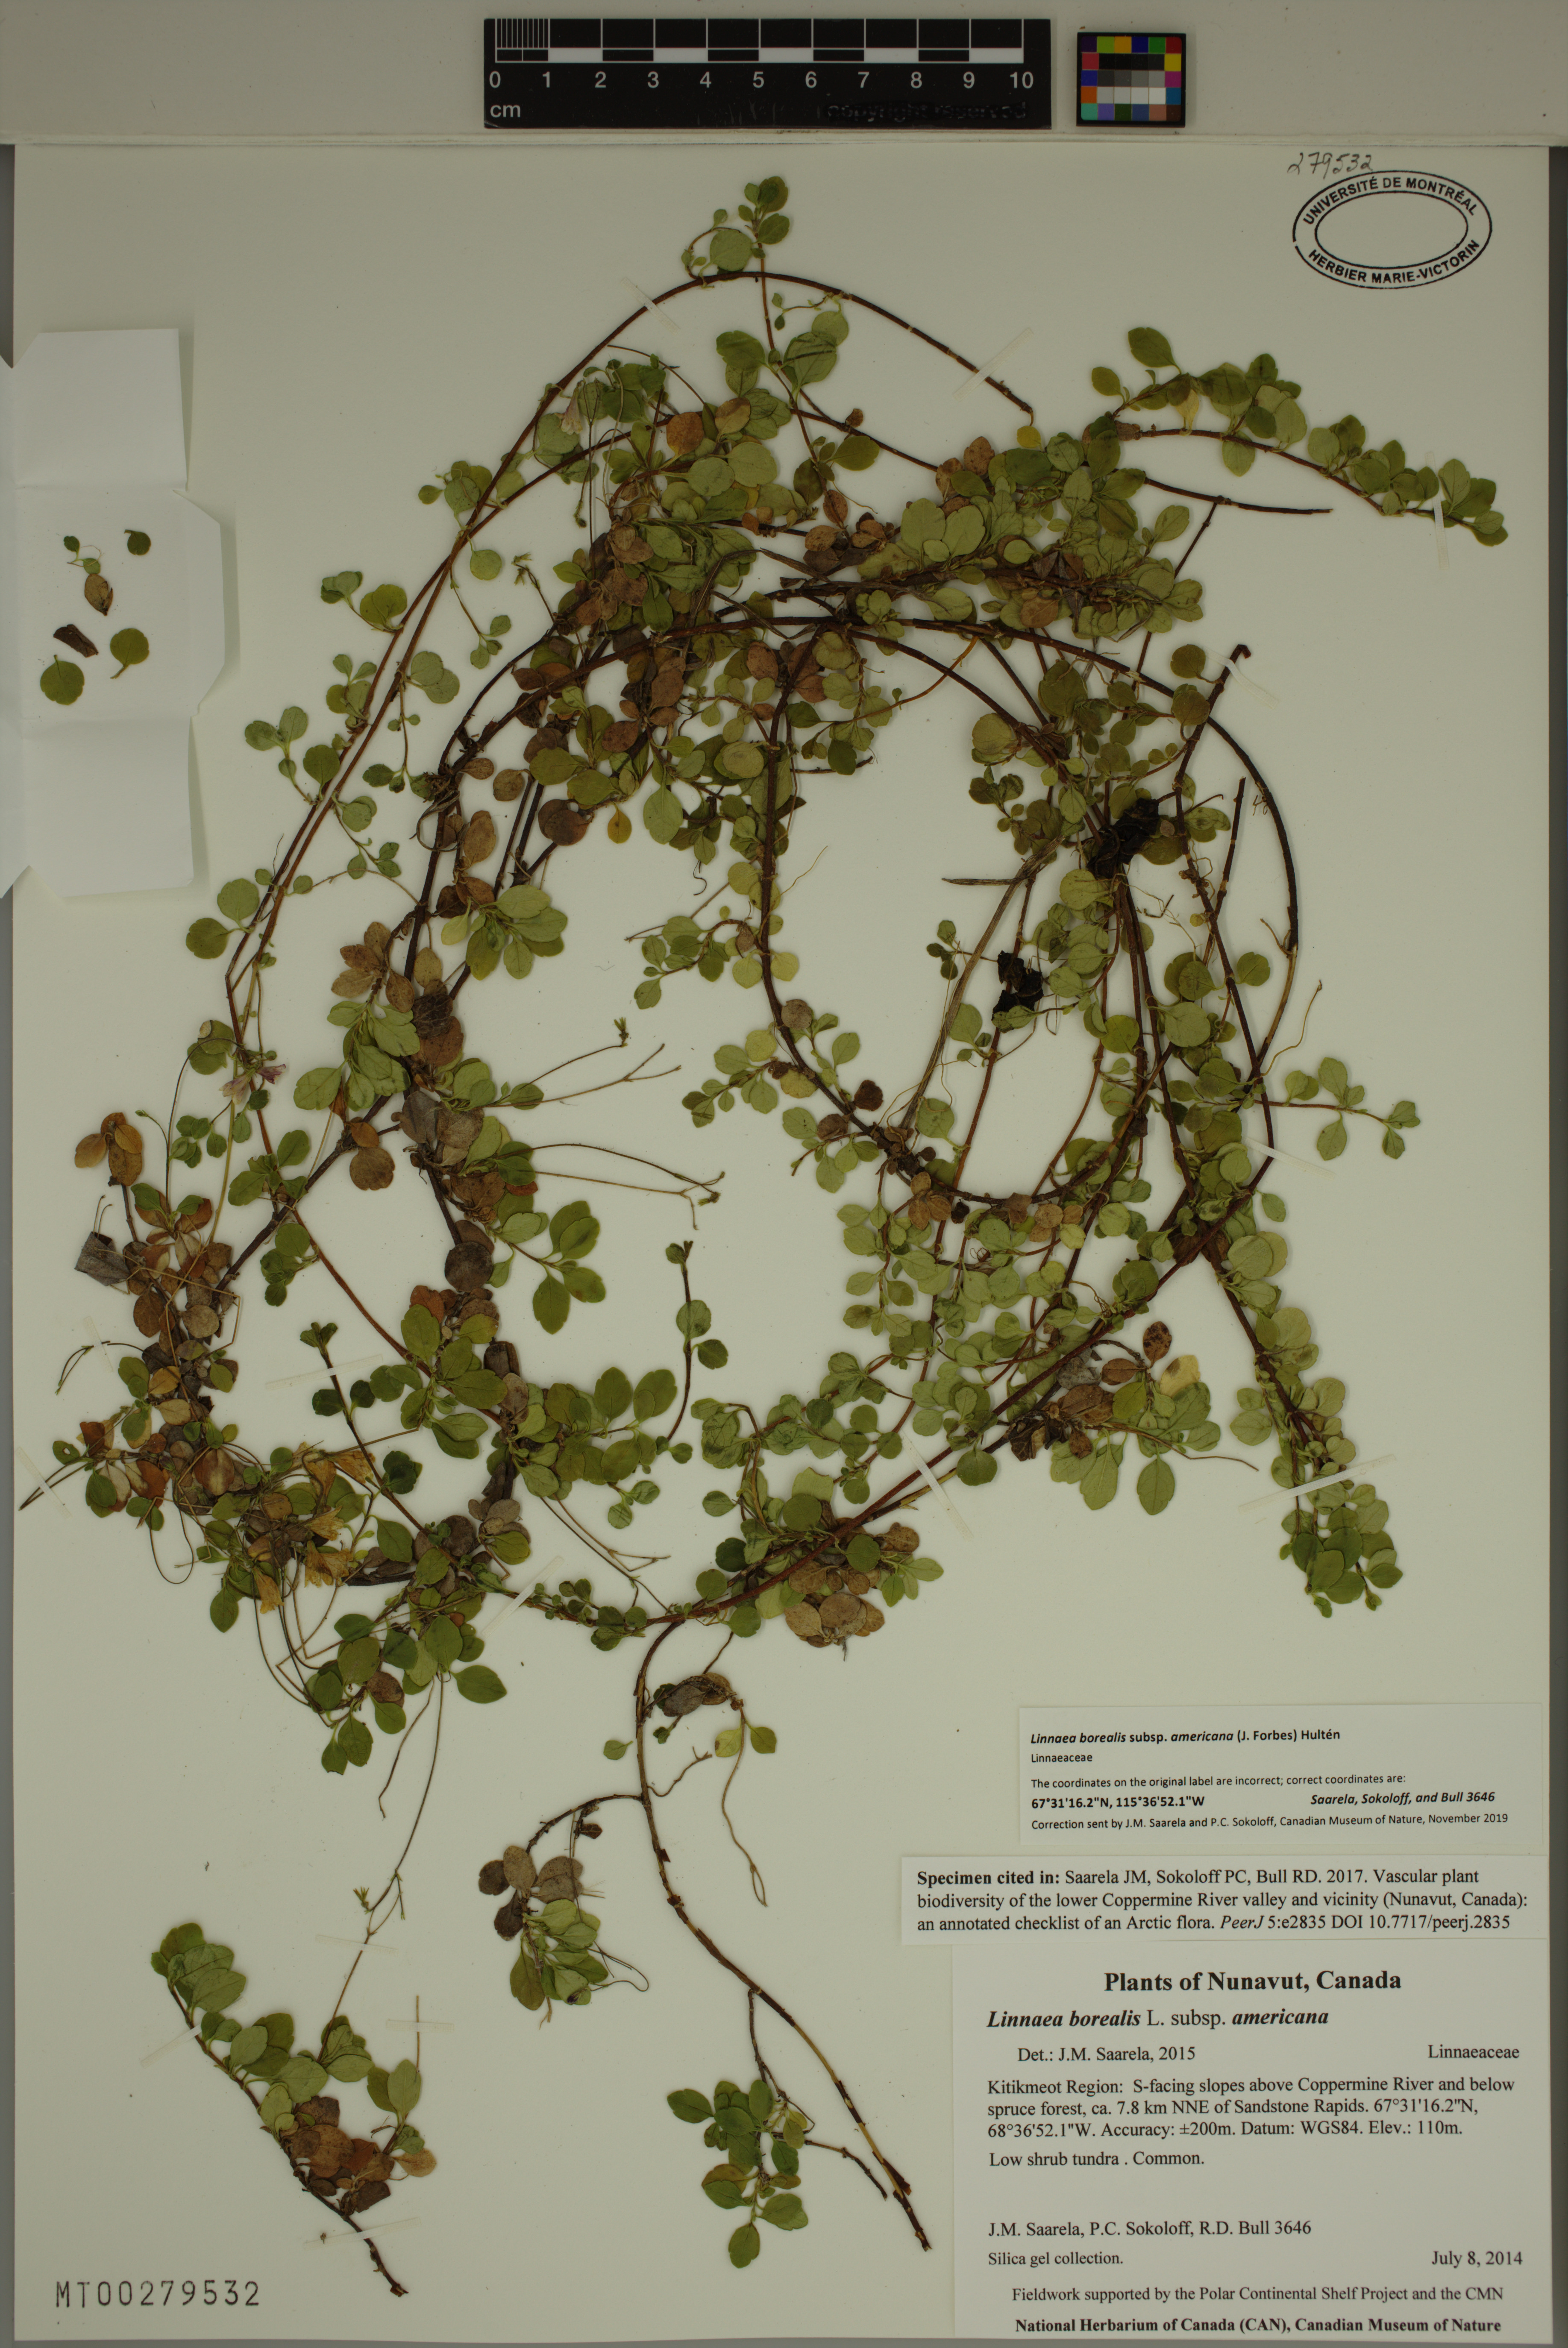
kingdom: Plantae
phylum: Tracheophyta
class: Magnoliopsida
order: Dipsacales
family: Caprifoliaceae
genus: Linnaea
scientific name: Linnaea borealis
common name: Twinflower
